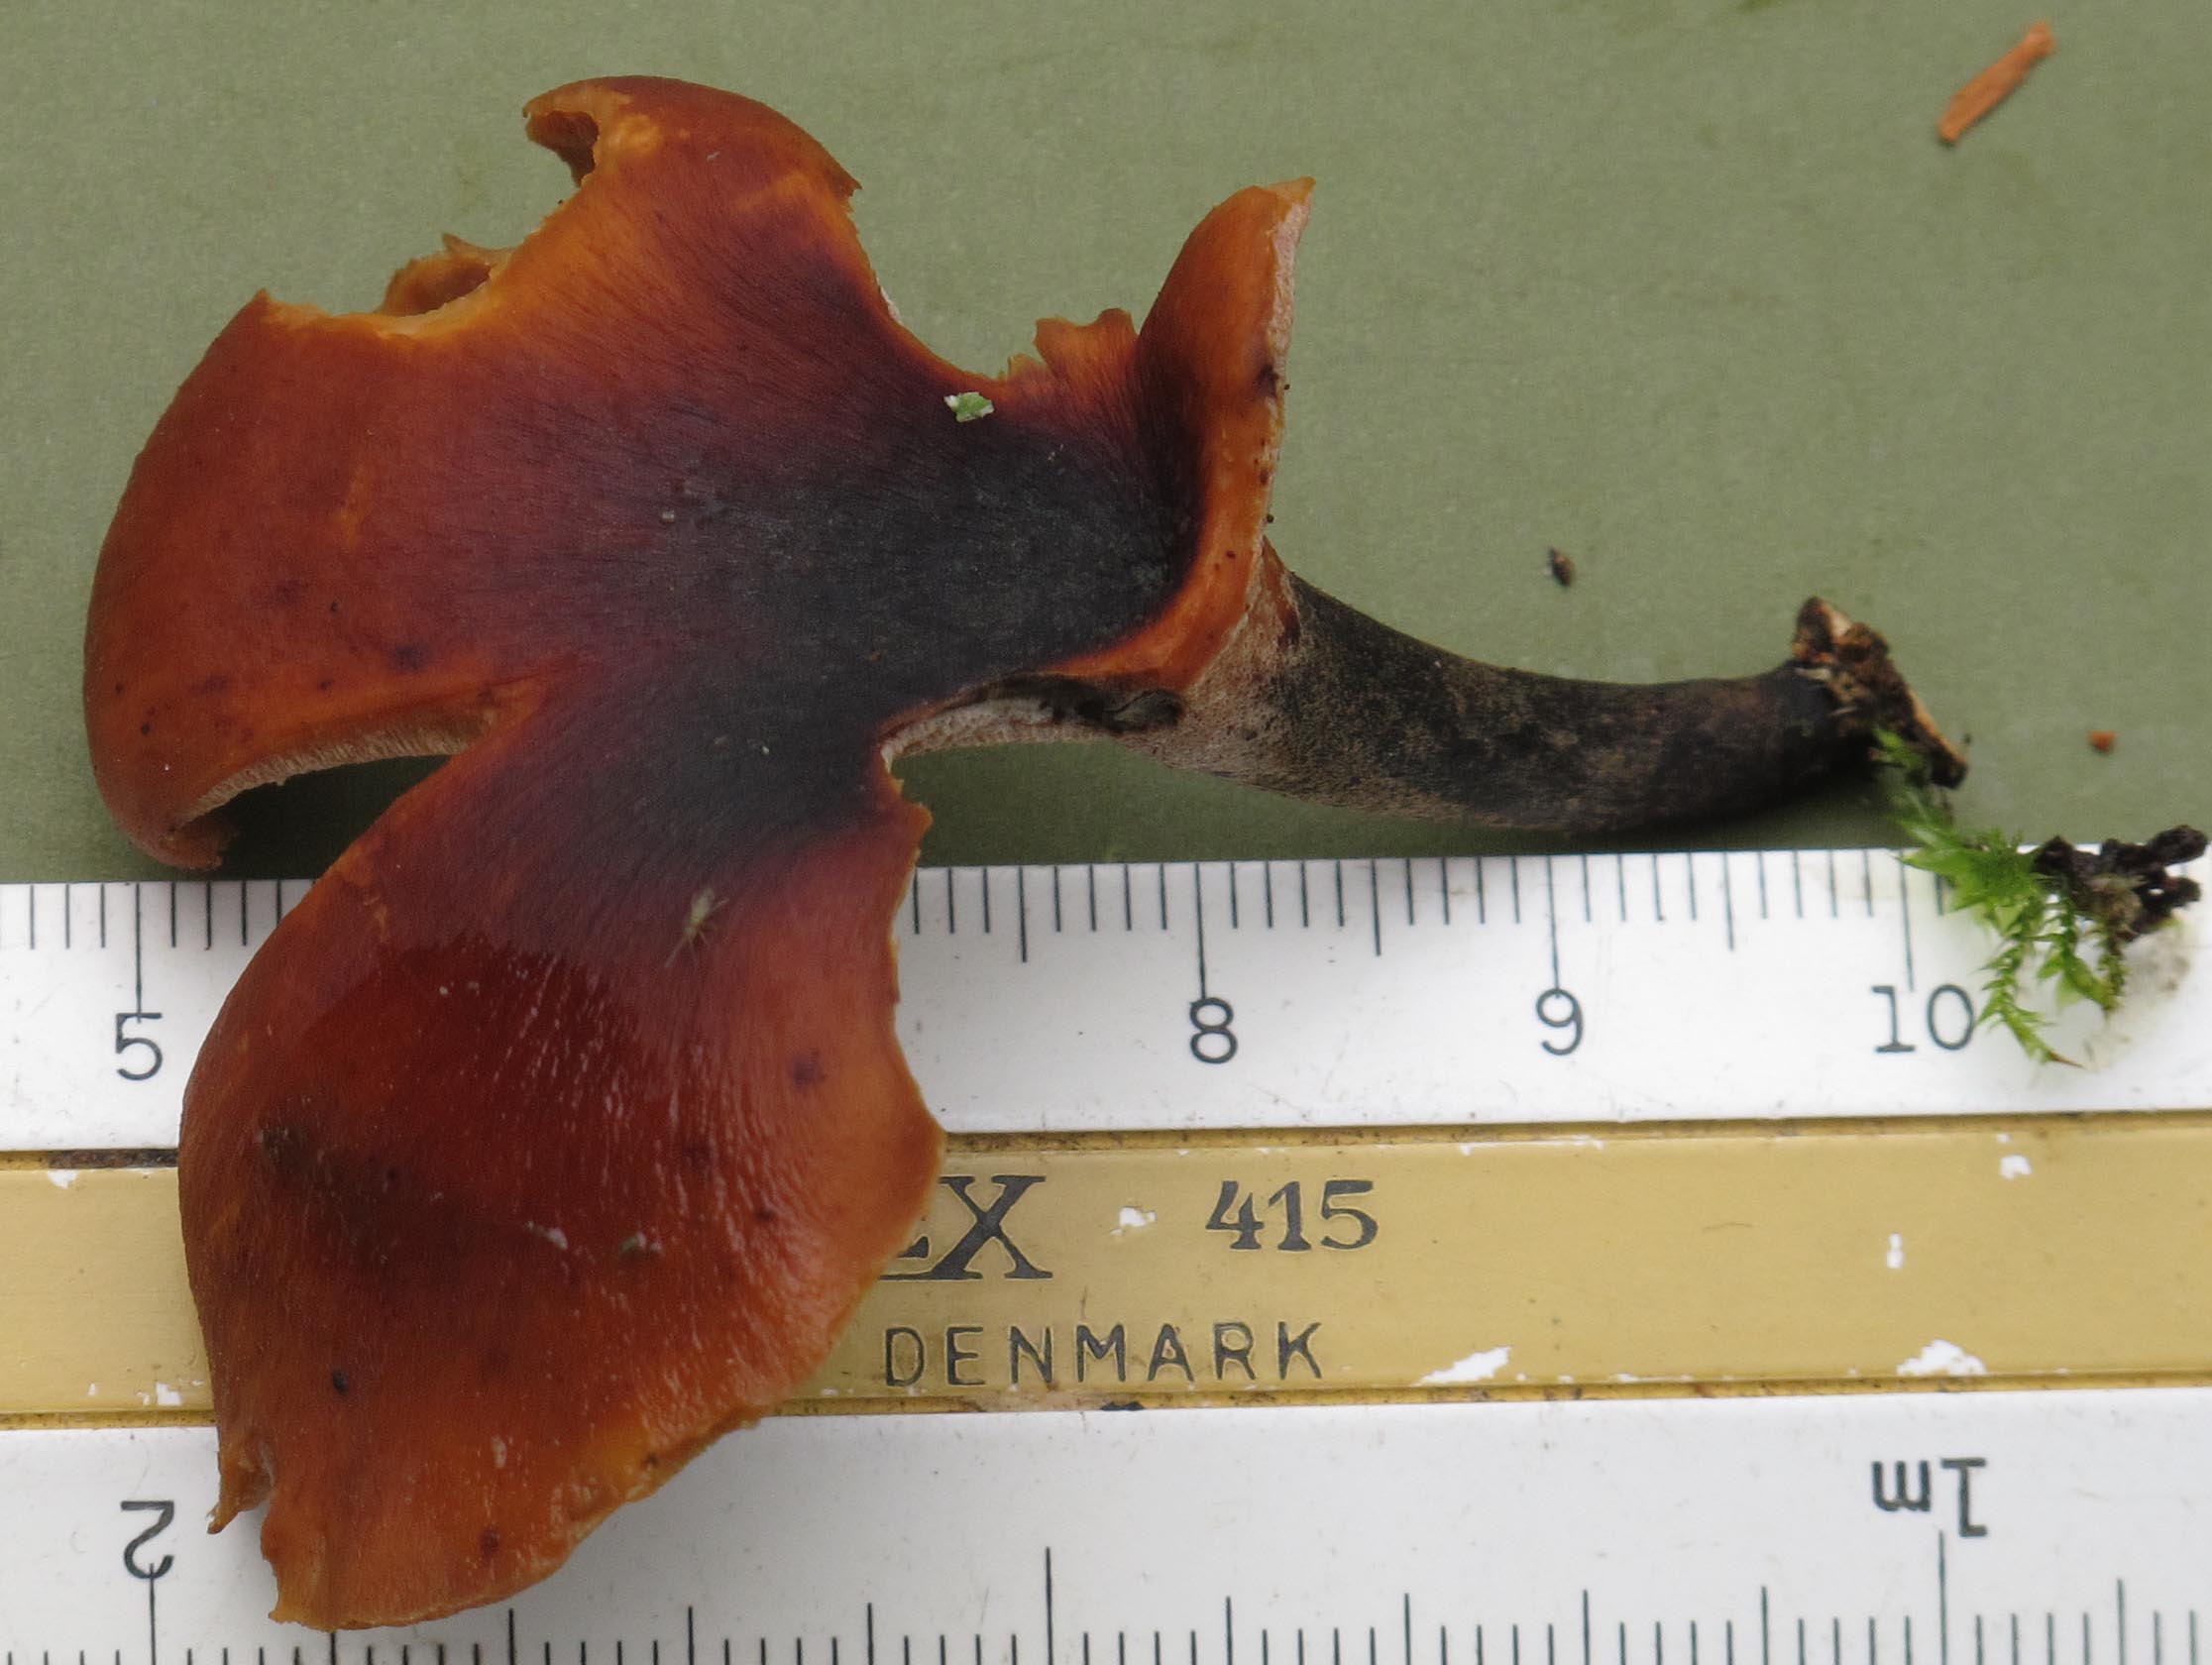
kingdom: Fungi
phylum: Basidiomycota
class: Agaricomycetes
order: Polyporales
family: Polyporaceae
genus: Picipes
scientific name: Picipes tubaeformis
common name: trompet-stilkporesvamp
